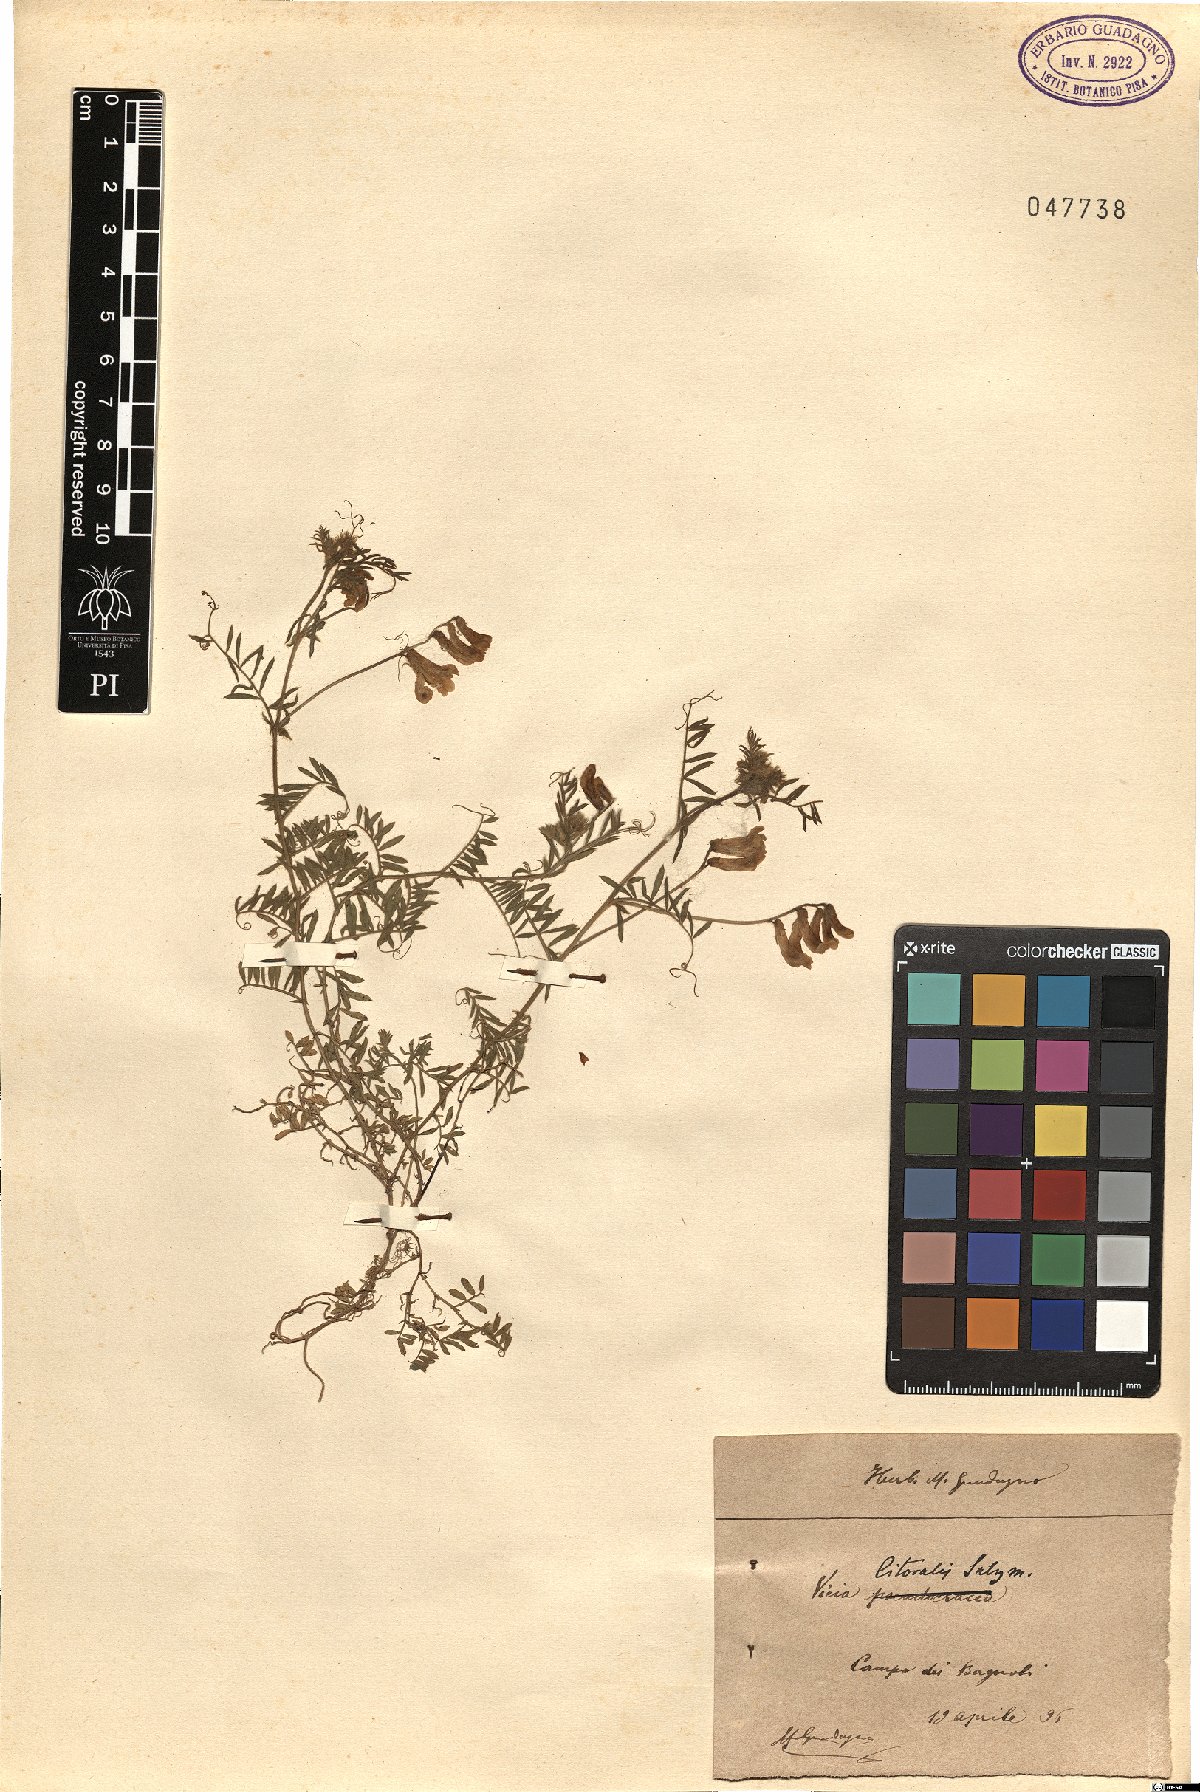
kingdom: Plantae
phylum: Tracheophyta
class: Magnoliopsida
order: Fabales
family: Fabaceae
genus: Vicia
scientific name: Vicia villosa
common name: Fodder vetch
